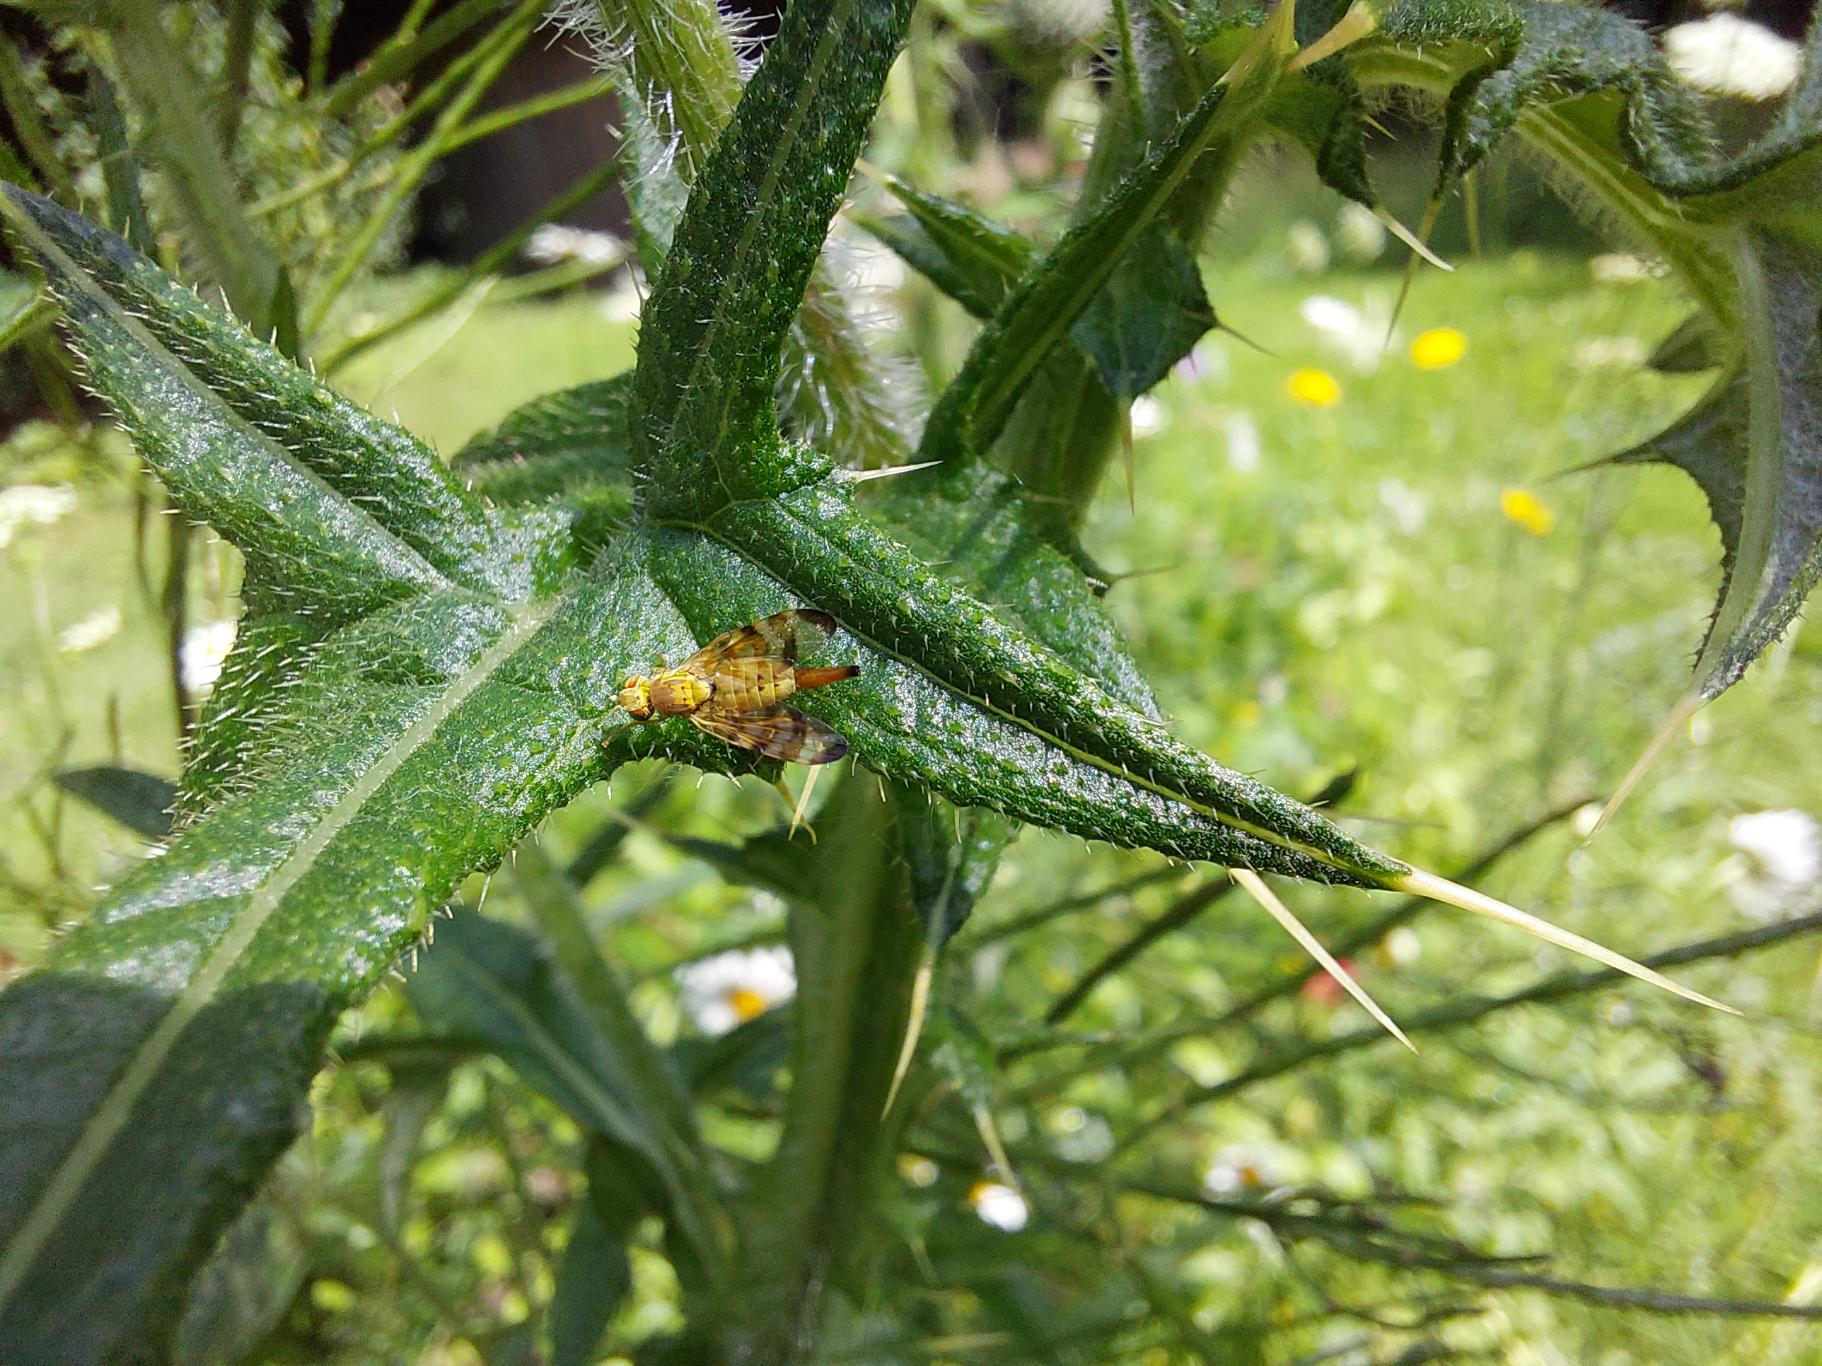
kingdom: Animalia
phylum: Arthropoda
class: Insecta
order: Diptera
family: Tephritidae
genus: Terellia
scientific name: Terellia tussilaginis
